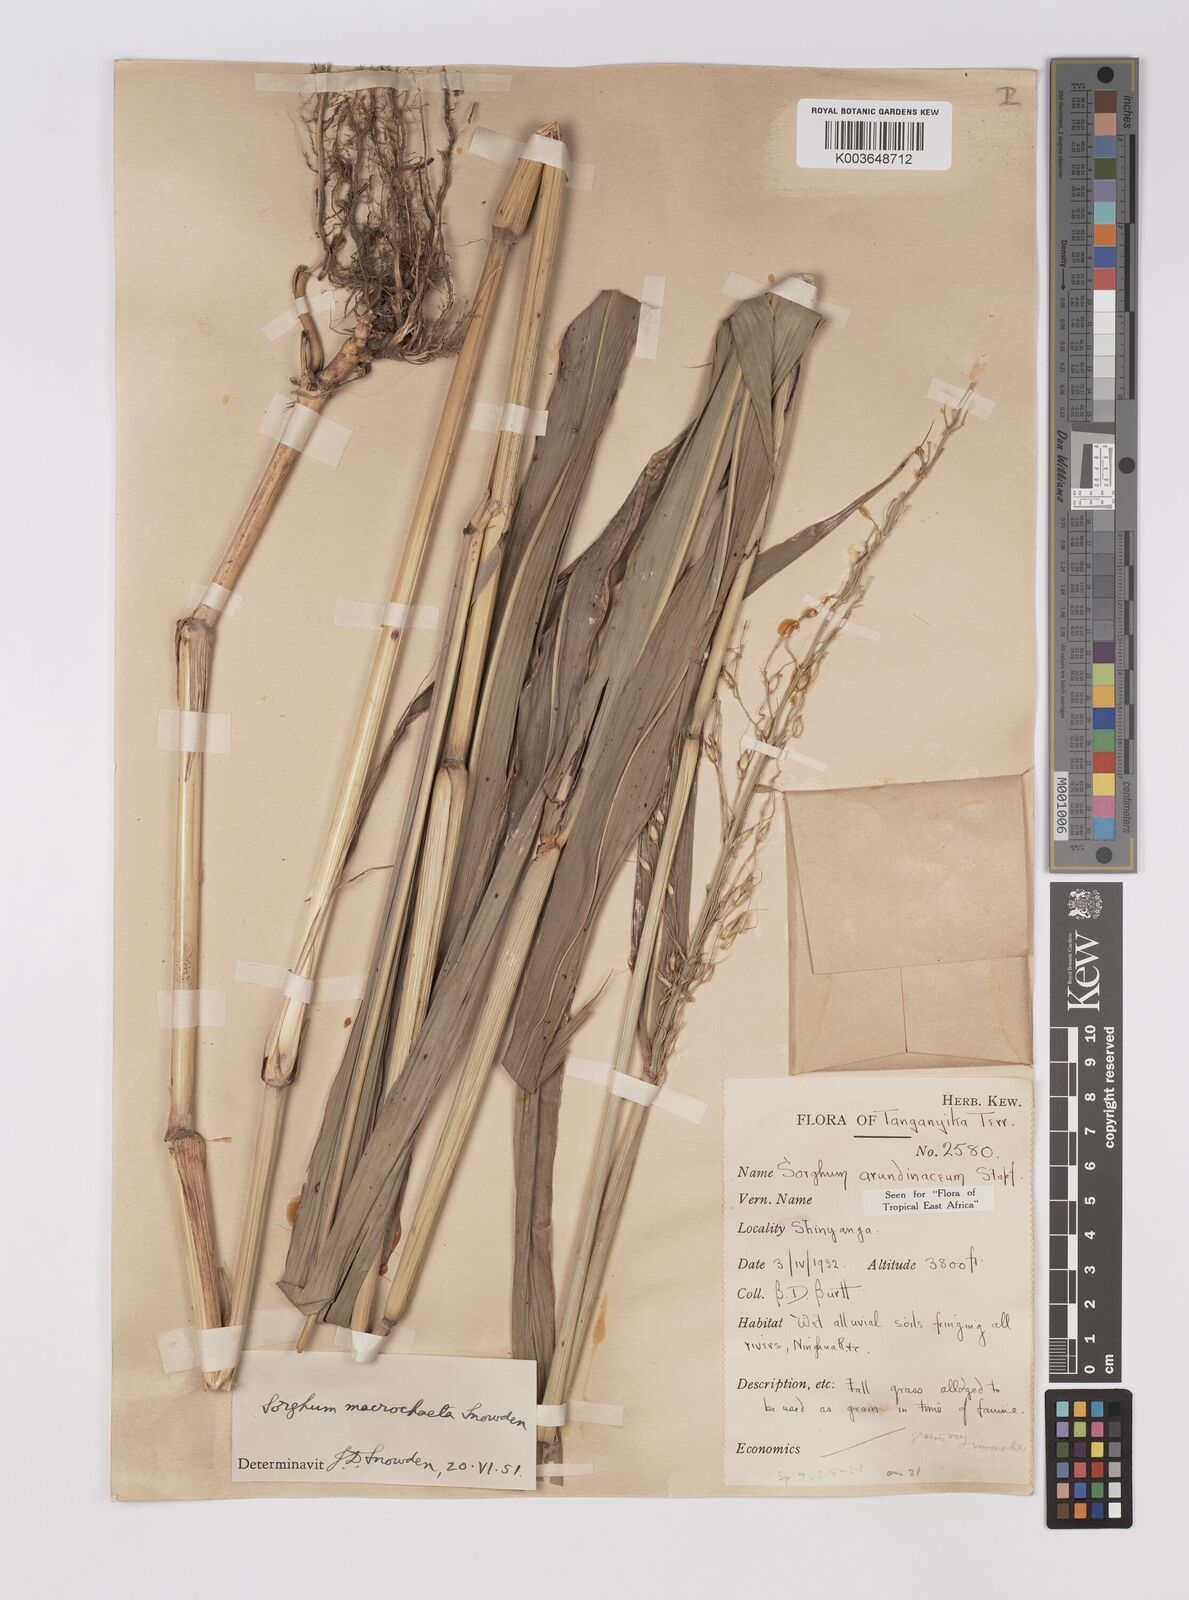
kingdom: Plantae
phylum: Tracheophyta
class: Liliopsida
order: Poales
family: Poaceae
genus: Sorghum
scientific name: Sorghum arundinaceum
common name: Sorghum
